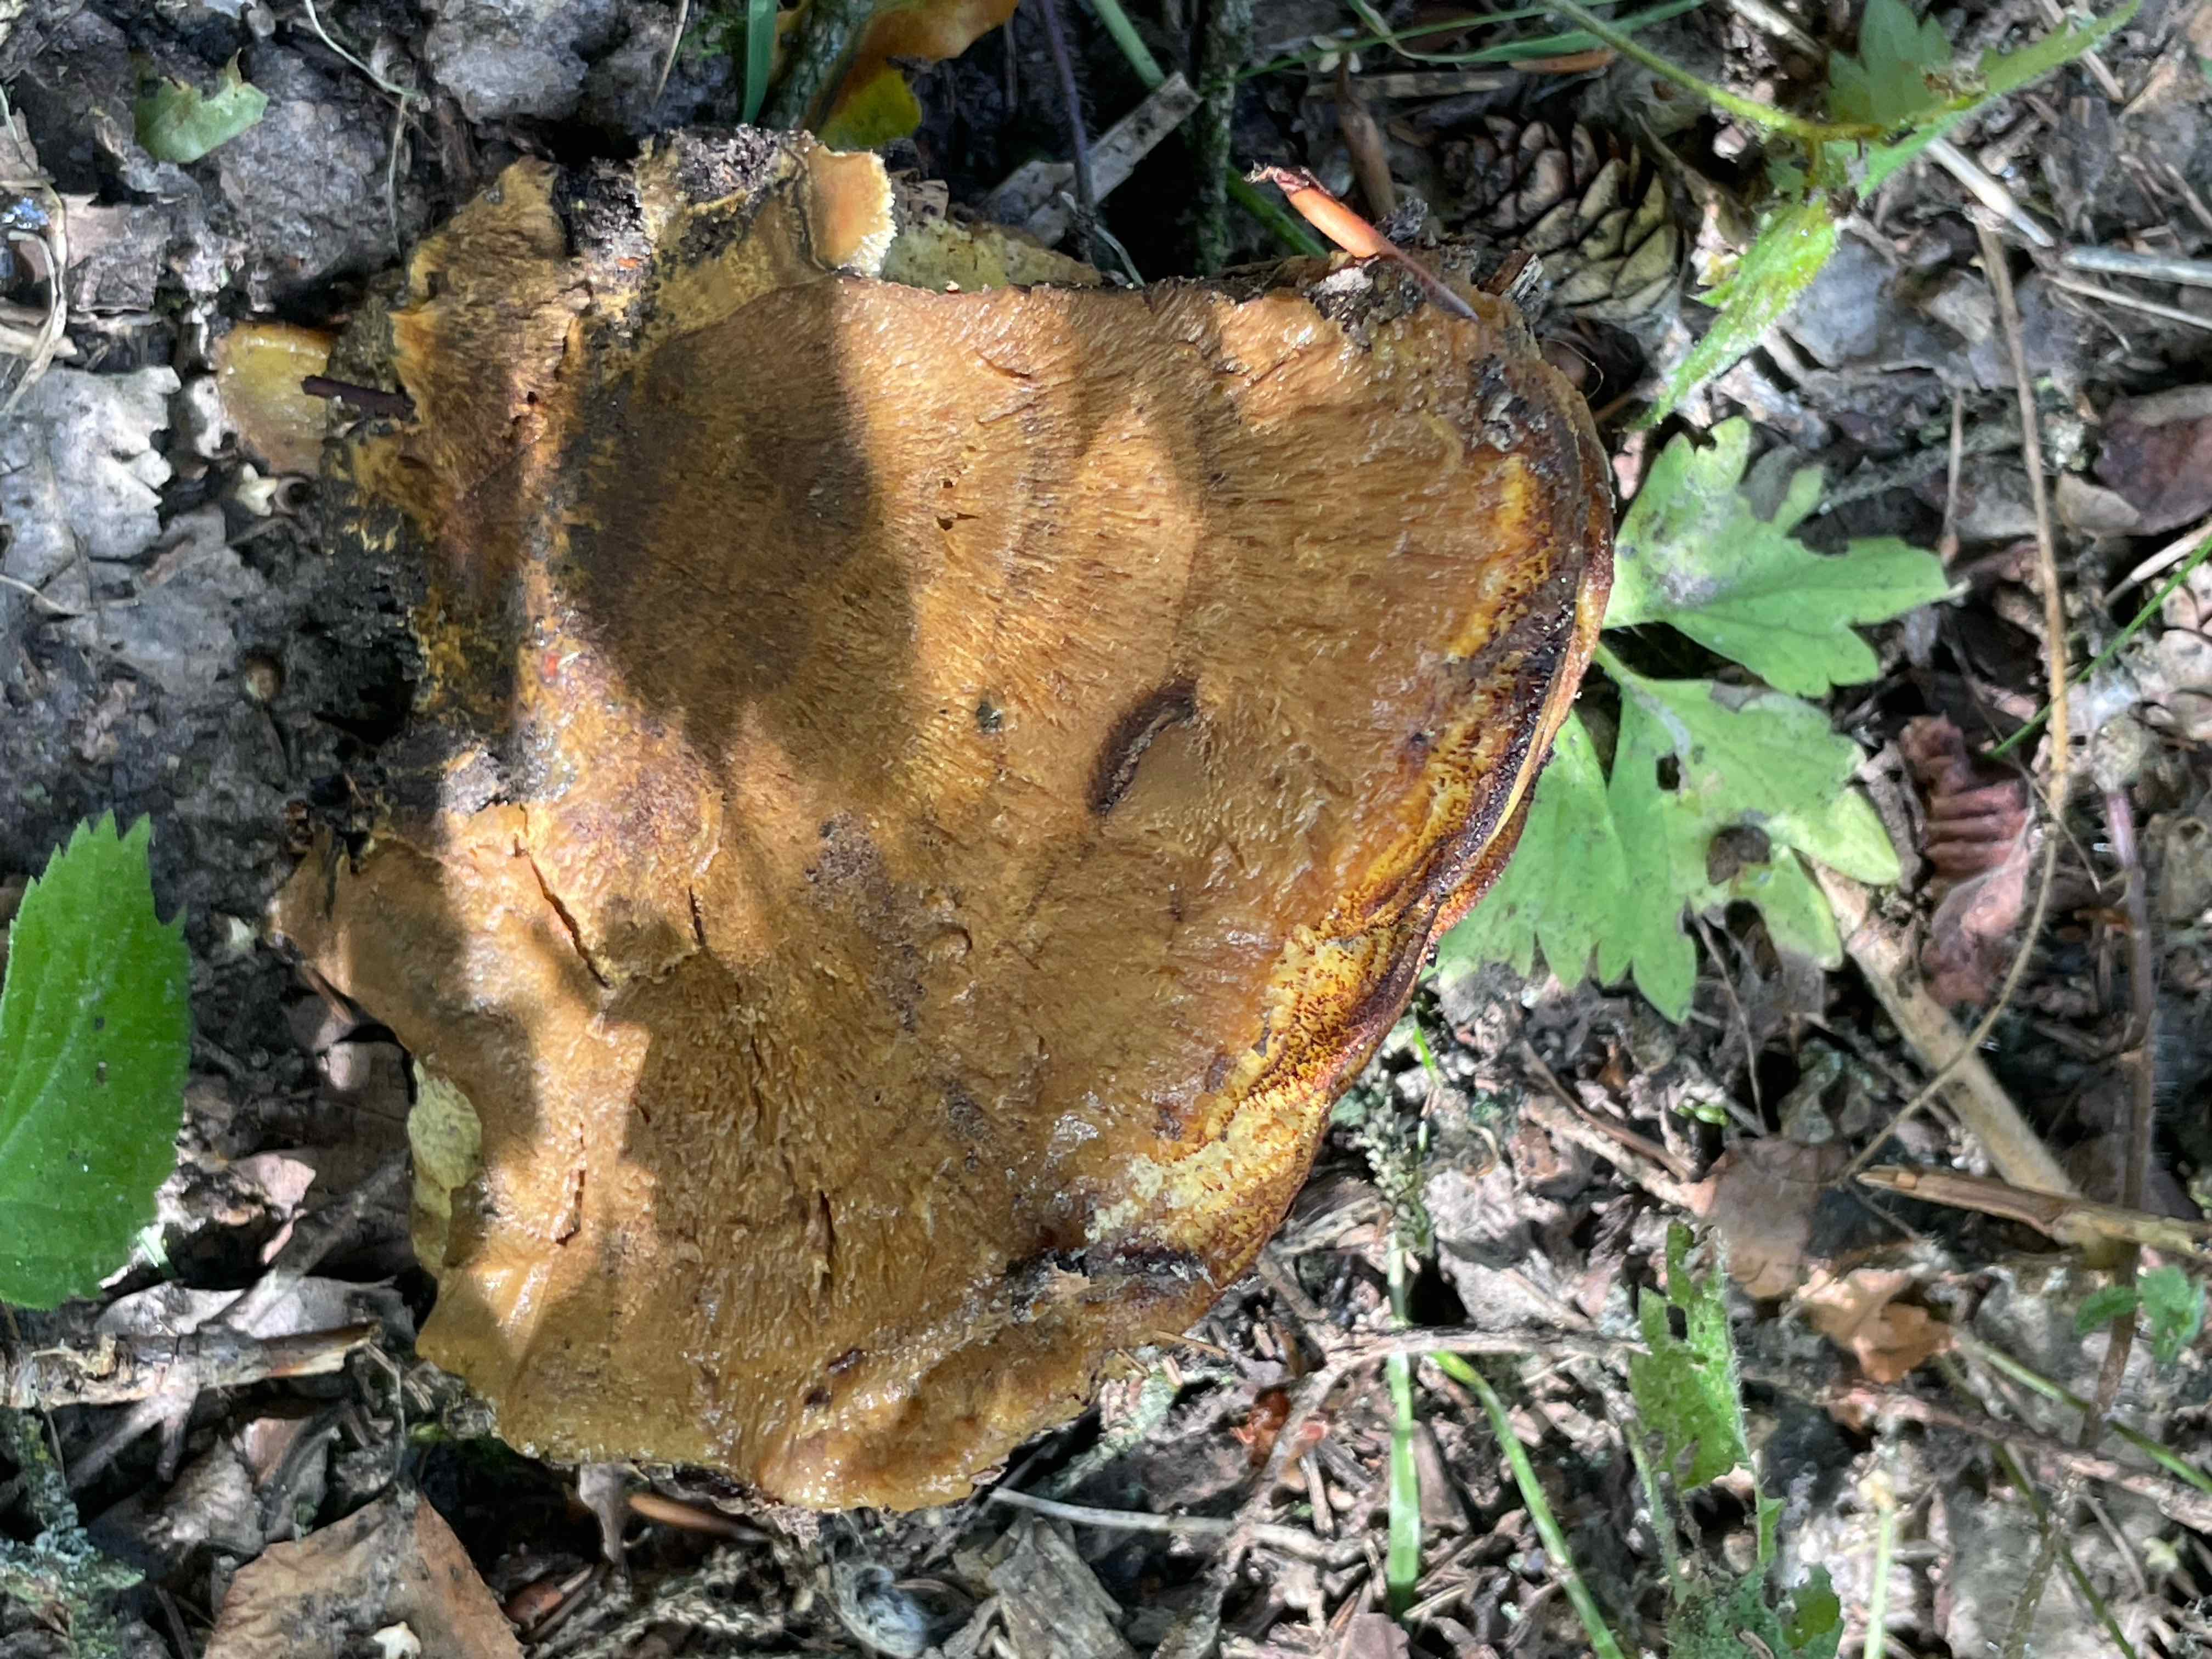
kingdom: Fungi
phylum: Basidiomycota
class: Agaricomycetes
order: Polyporales
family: Laetiporaceae
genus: Phaeolus
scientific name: Phaeolus schweinitzii
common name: brunporesvamp
